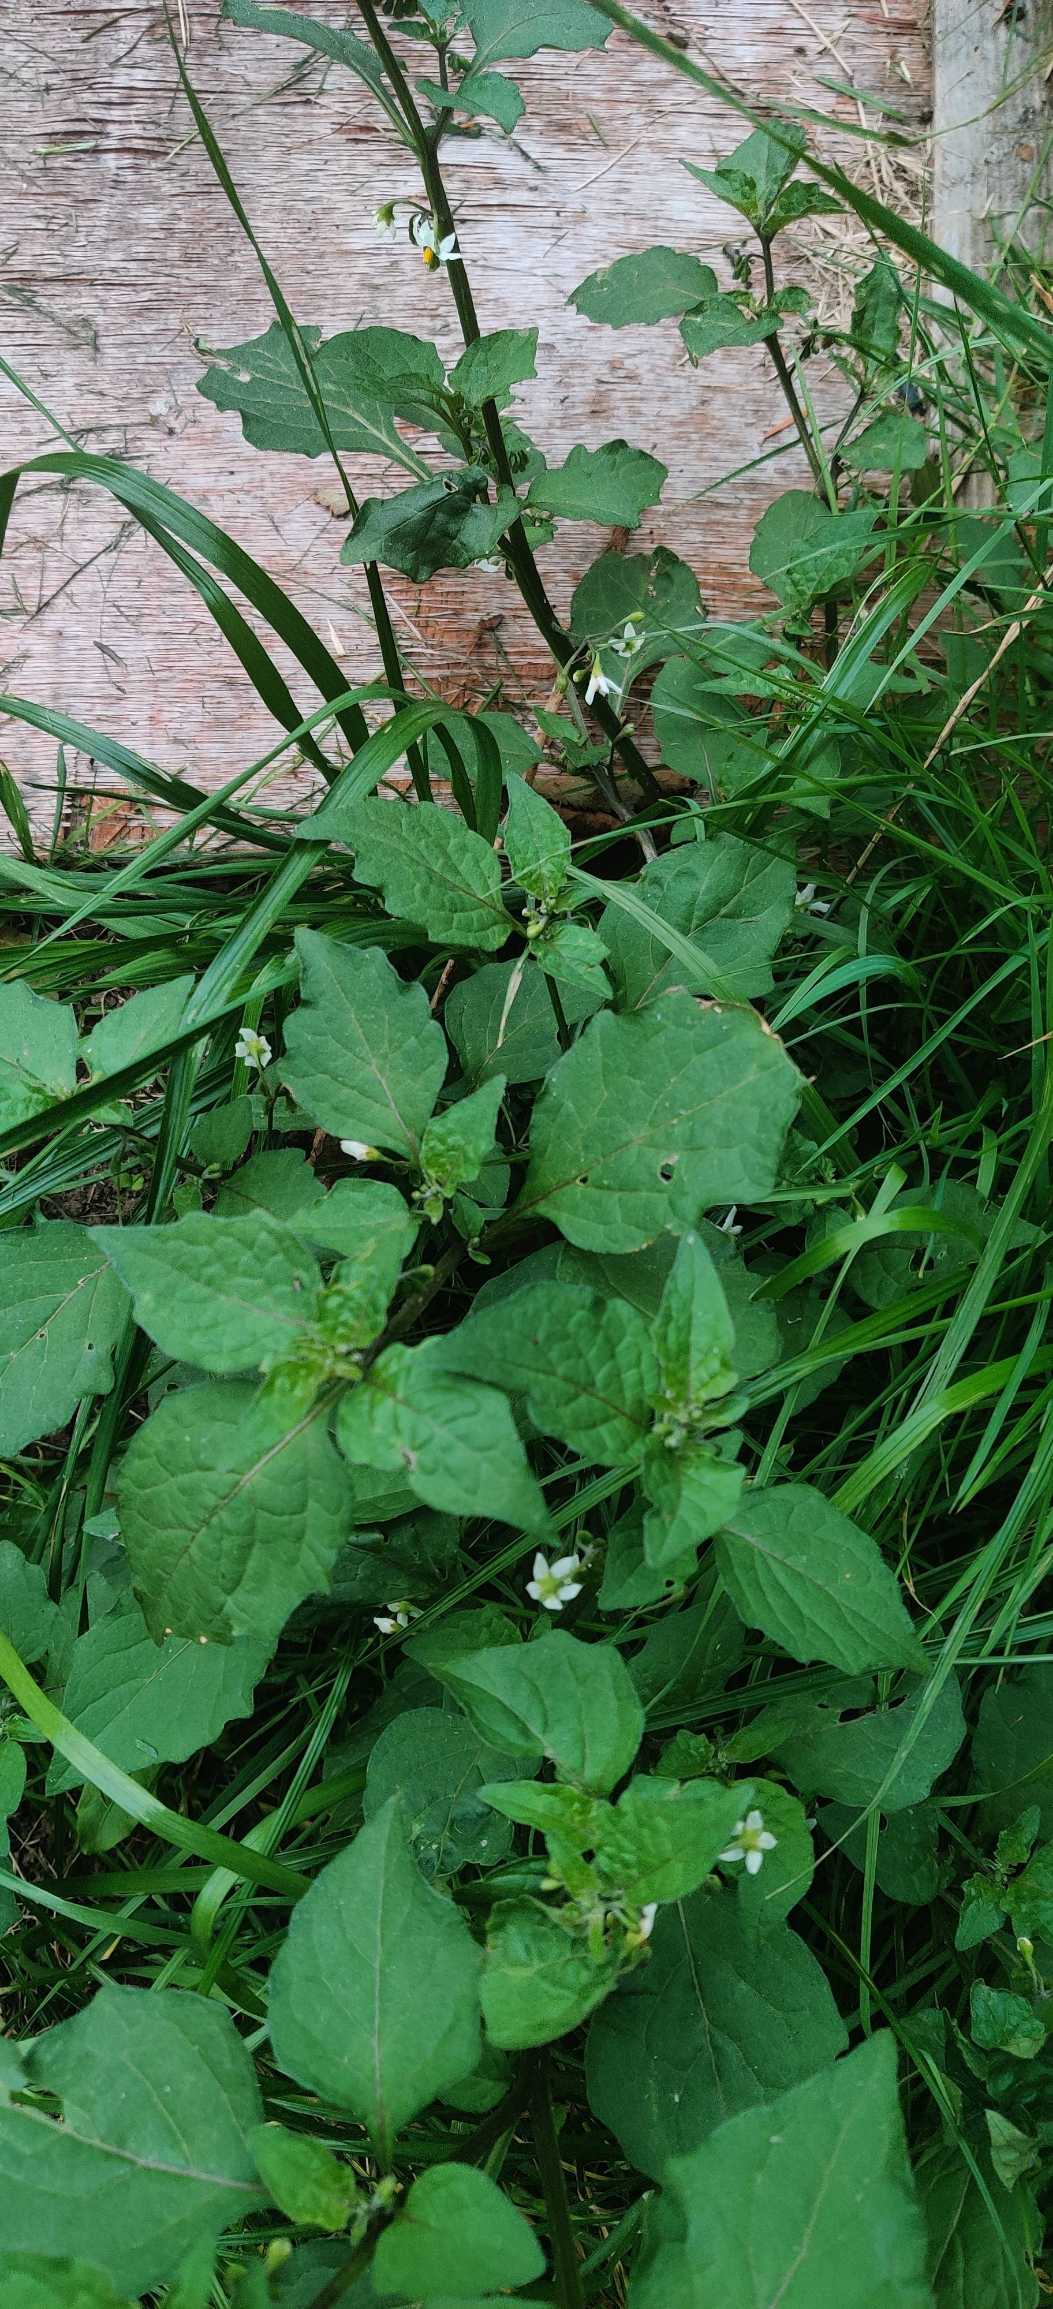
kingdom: Plantae
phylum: Tracheophyta
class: Magnoliopsida
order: Solanales
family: Solanaceae
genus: Solanum
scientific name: Solanum nigrum
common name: Sort natskygge (underart)
